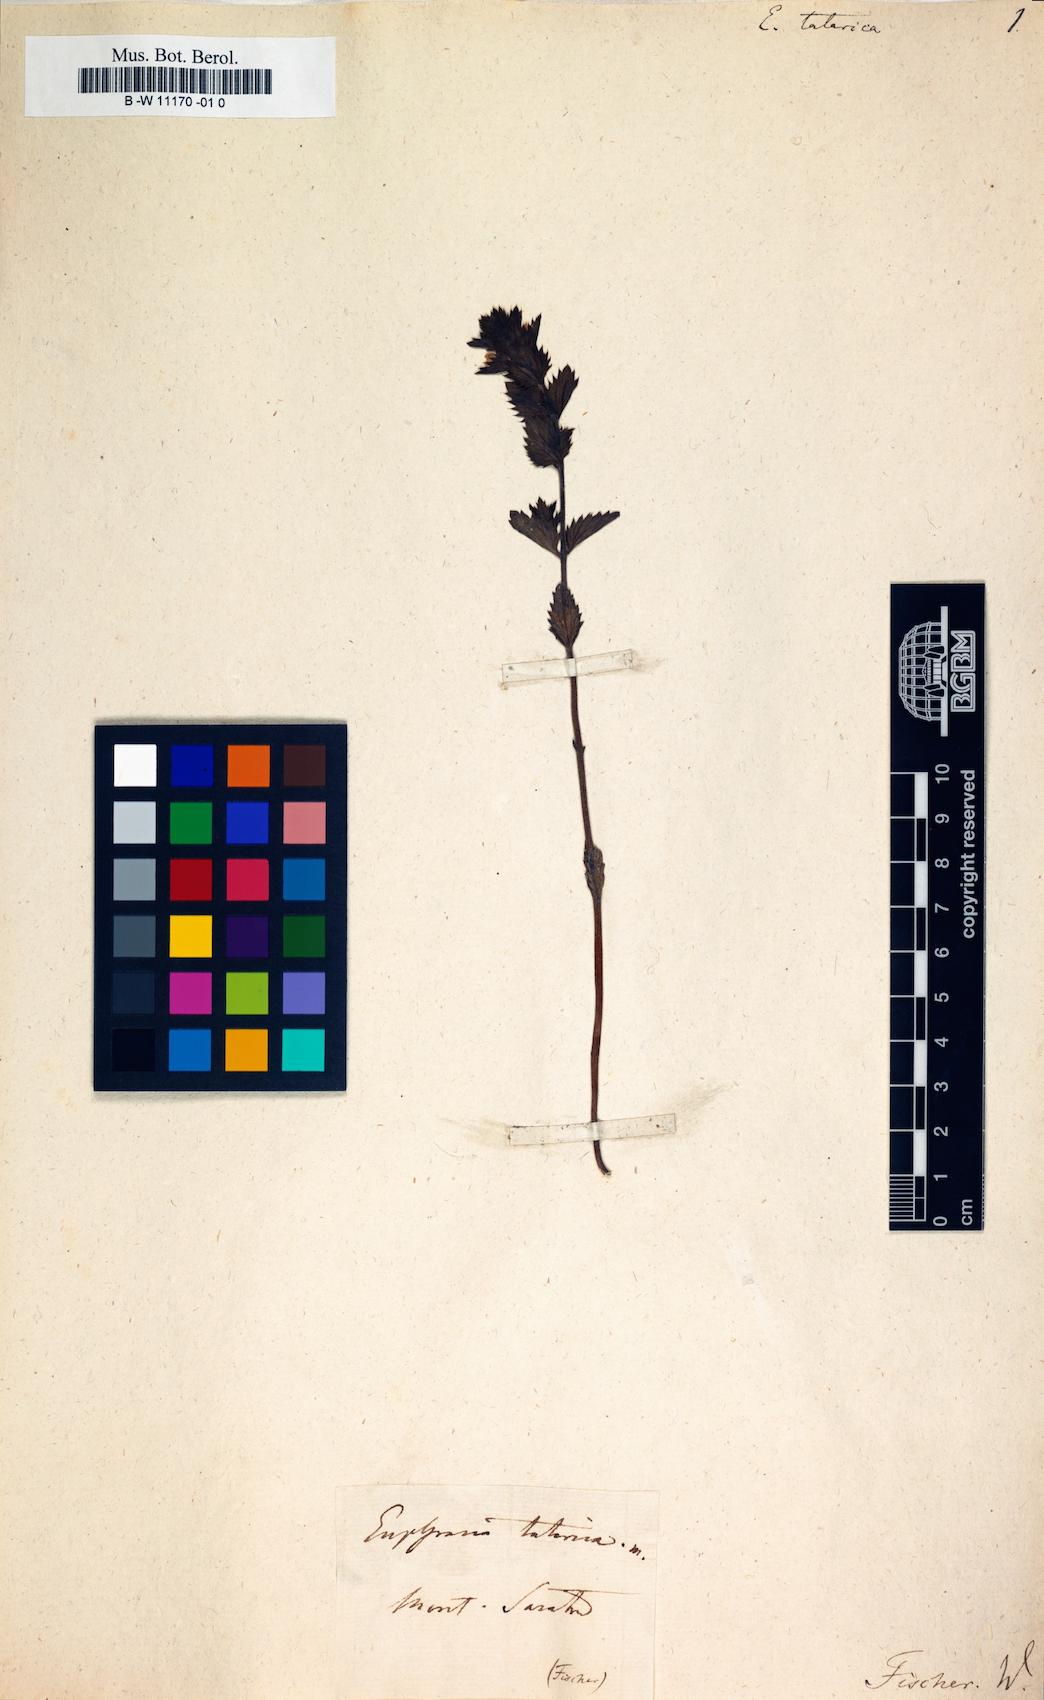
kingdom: Plantae
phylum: Tracheophyta
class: Magnoliopsida
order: Lamiales
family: Orobanchaceae
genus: Euphrasia
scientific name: Euphrasia pectinata
